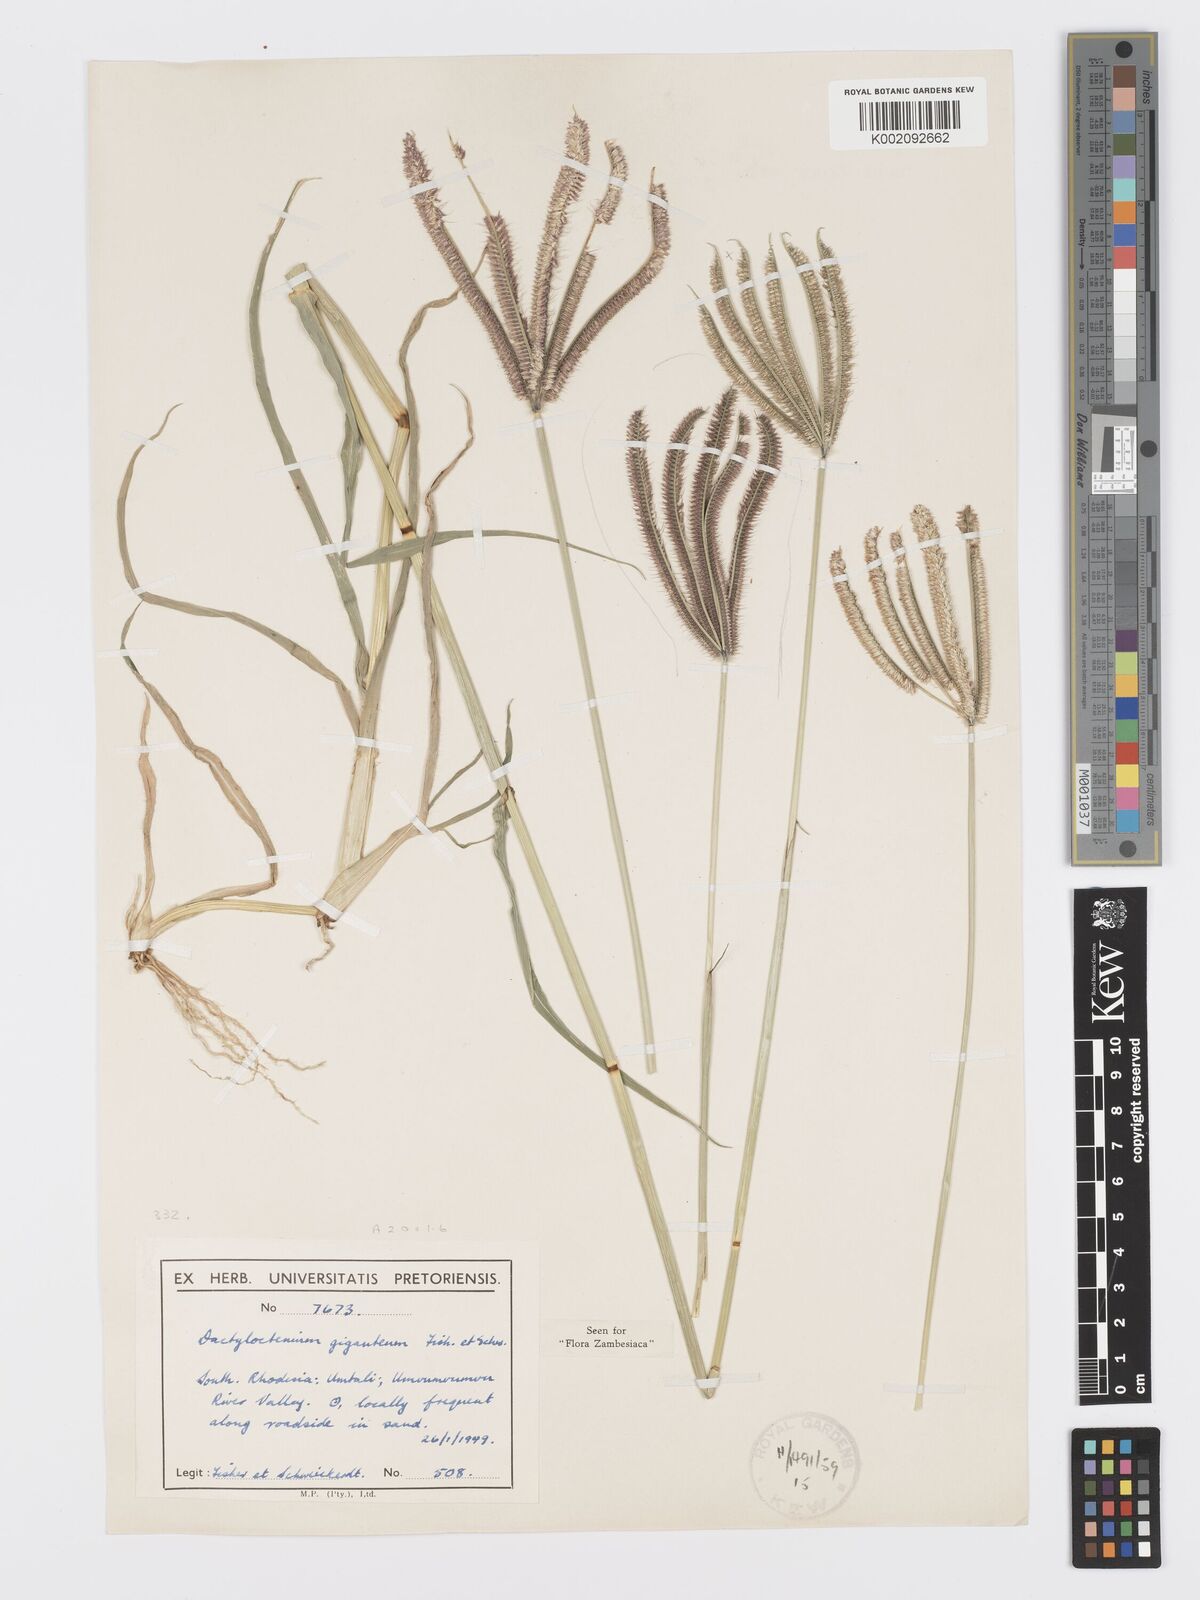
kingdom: Plantae
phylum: Tracheophyta
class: Liliopsida
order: Poales
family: Poaceae
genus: Dactyloctenium
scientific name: Dactyloctenium giganteum
